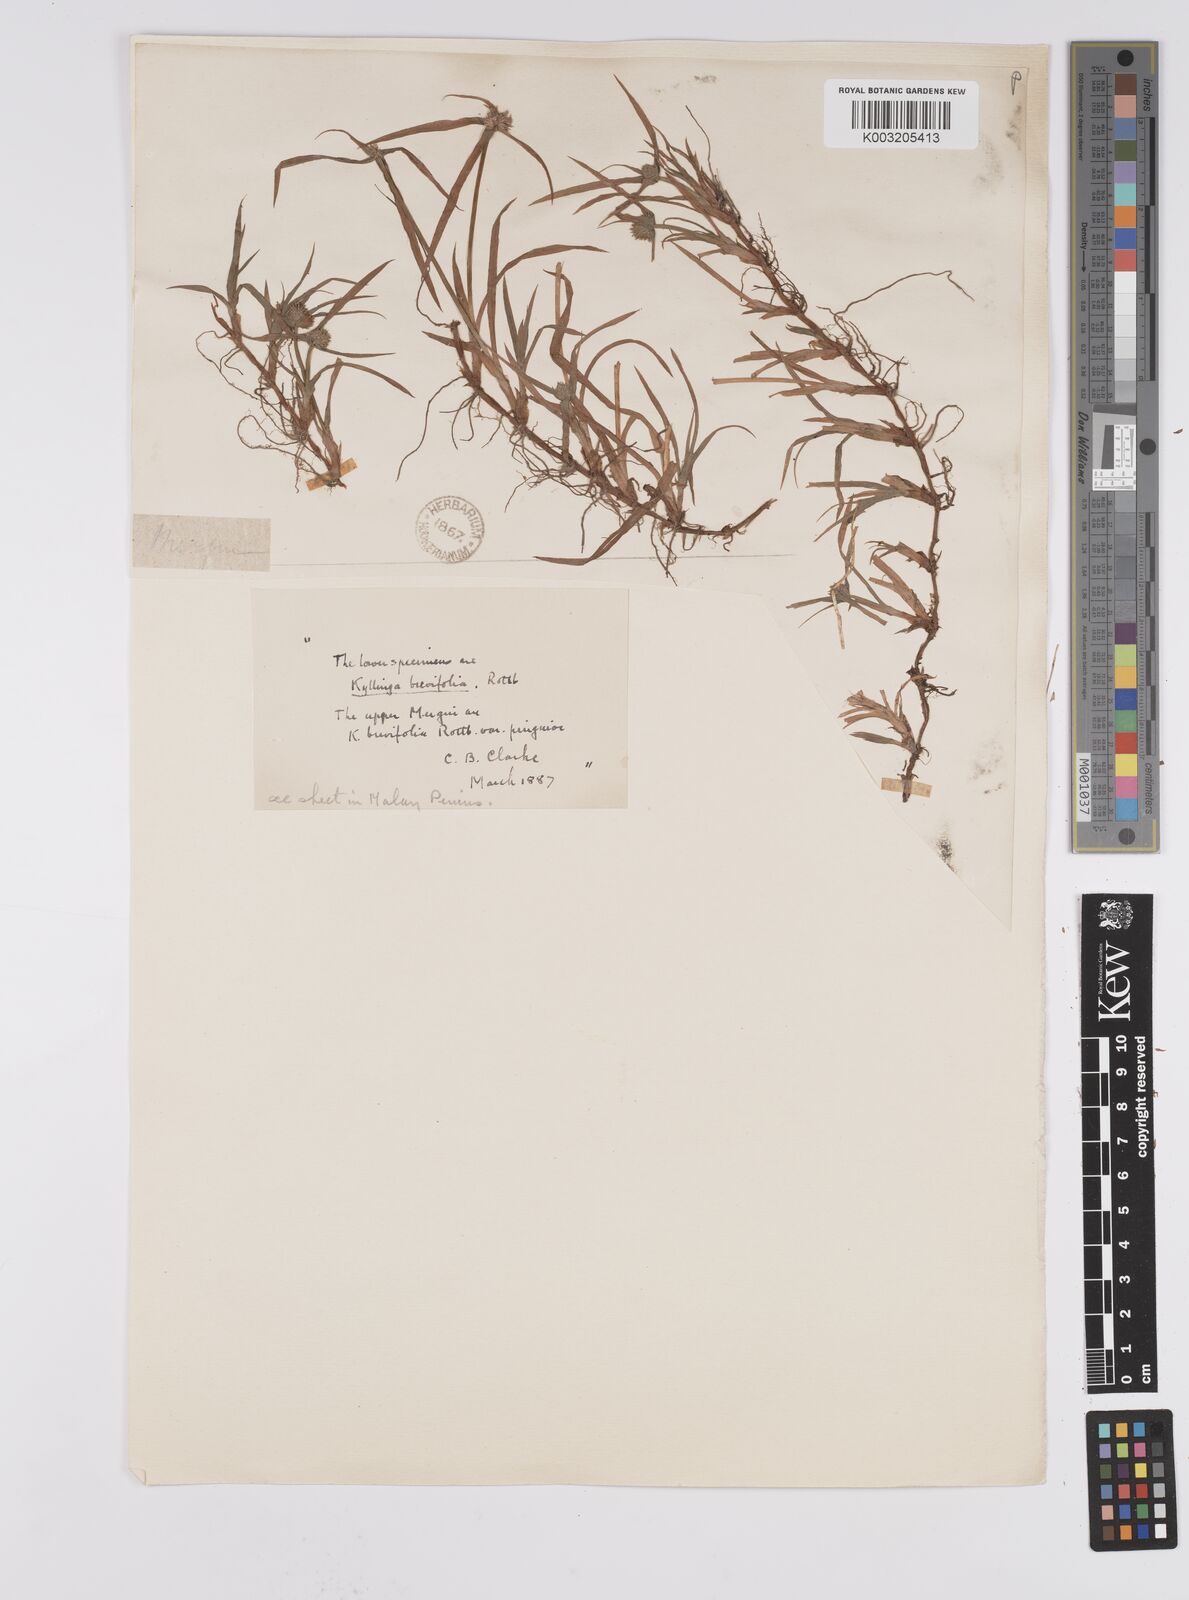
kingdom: Plantae
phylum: Tracheophyta
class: Liliopsida
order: Poales
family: Cyperaceae
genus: Cyperus
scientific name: Cyperus brevifolius
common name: Globe kyllinga
